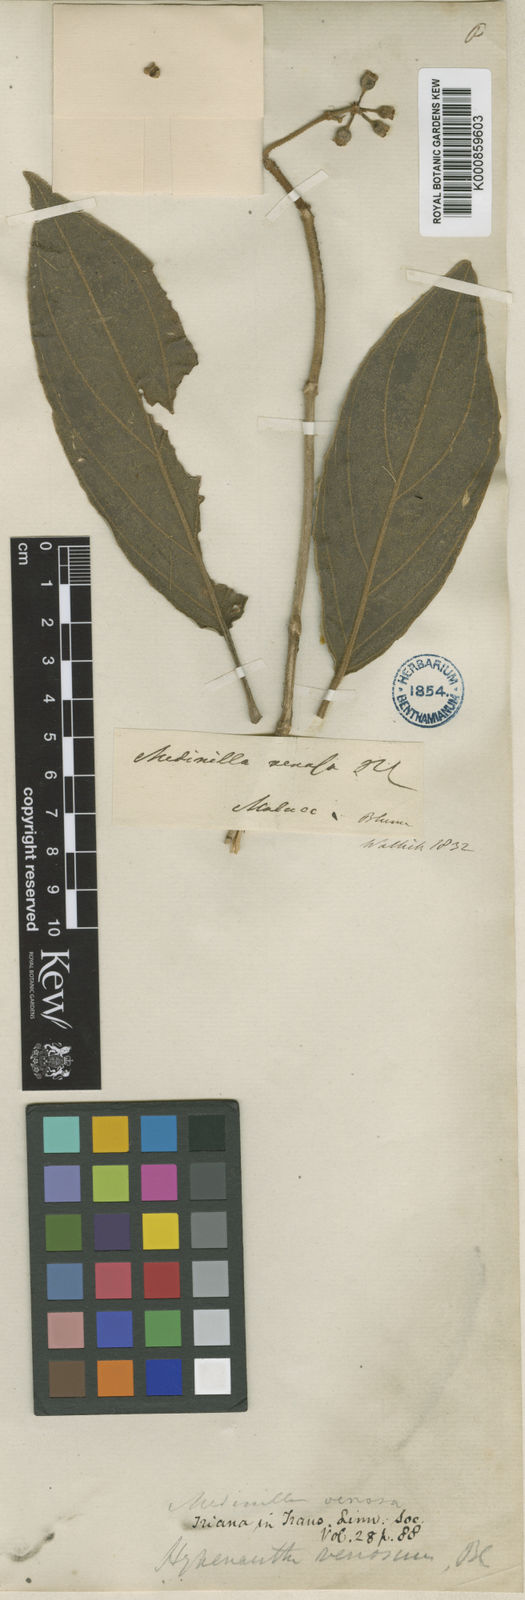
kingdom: Plantae
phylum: Tracheophyta
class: Magnoliopsida
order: Myrtales
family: Melastomataceae
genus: Medinilla
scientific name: Medinilla venosa
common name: Holdtight
